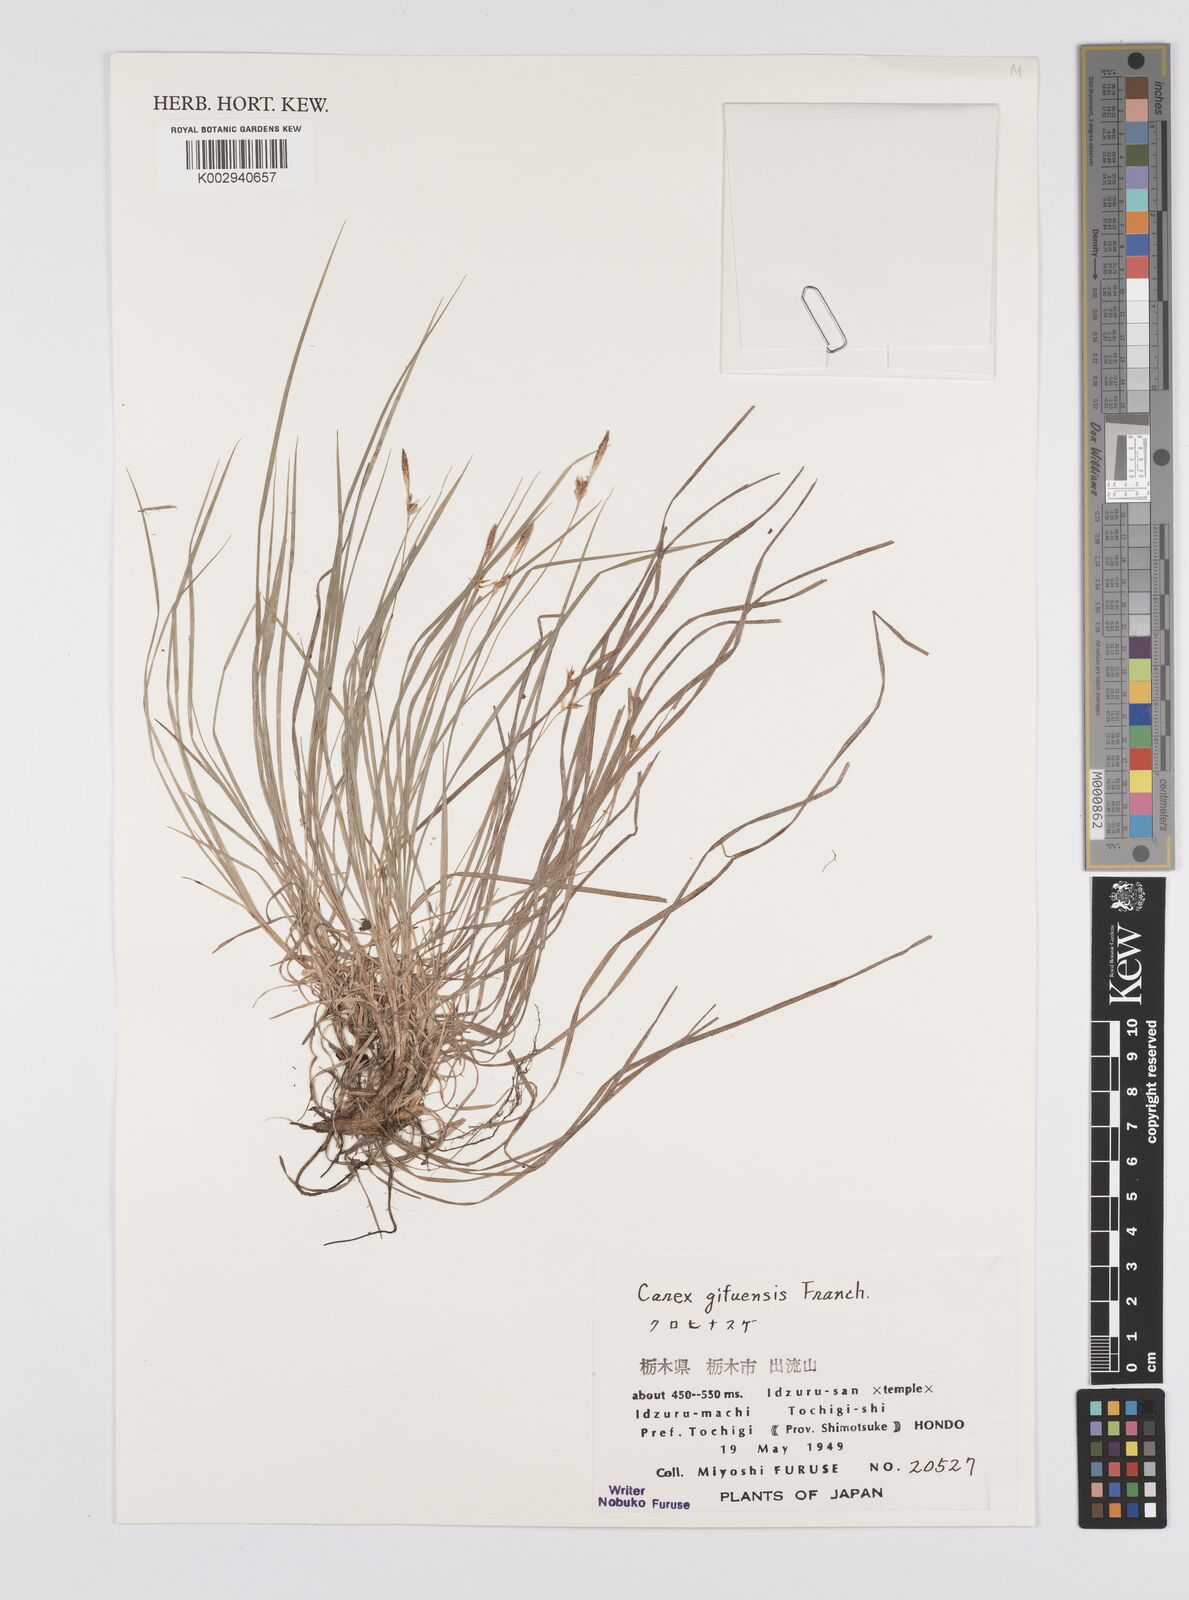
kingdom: Plantae
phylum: Tracheophyta
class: Liliopsida
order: Poales
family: Cyperaceae
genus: Carex
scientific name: Carex gifuensis
